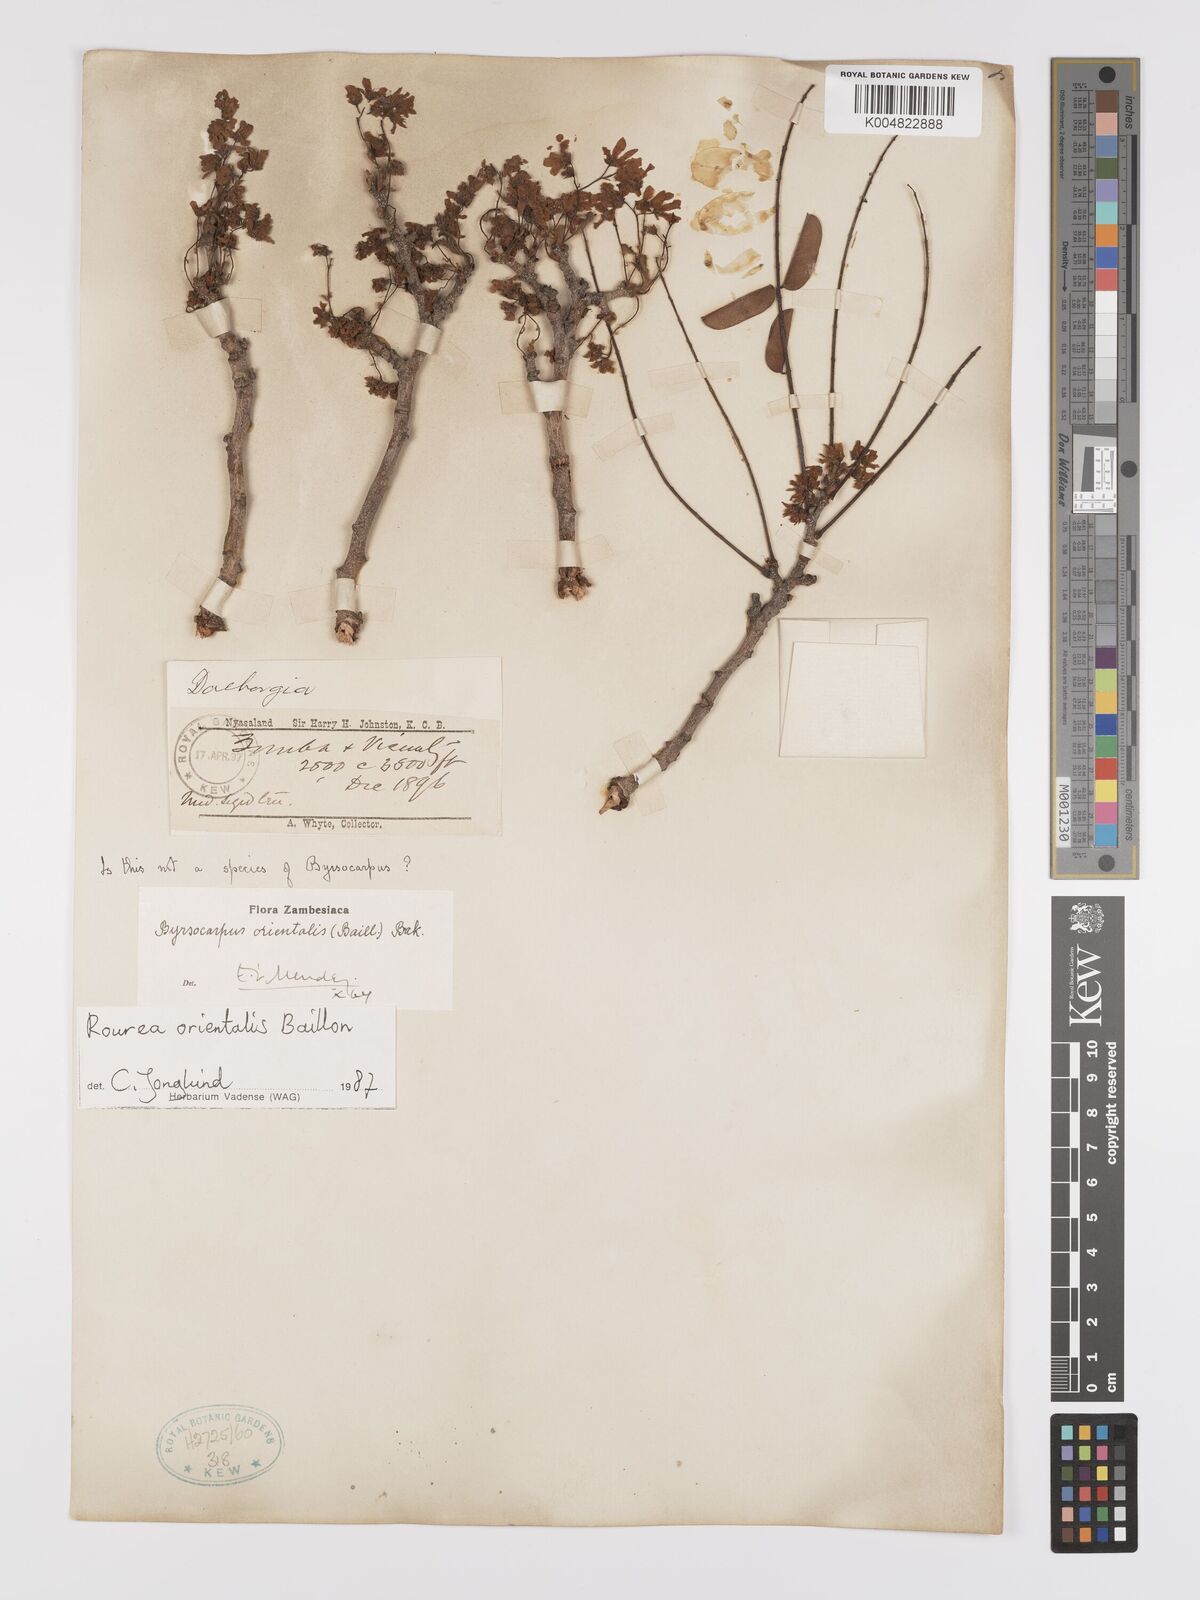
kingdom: Plantae
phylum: Tracheophyta
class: Magnoliopsida
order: Oxalidales
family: Connaraceae
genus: Rourea
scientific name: Rourea orientalis
